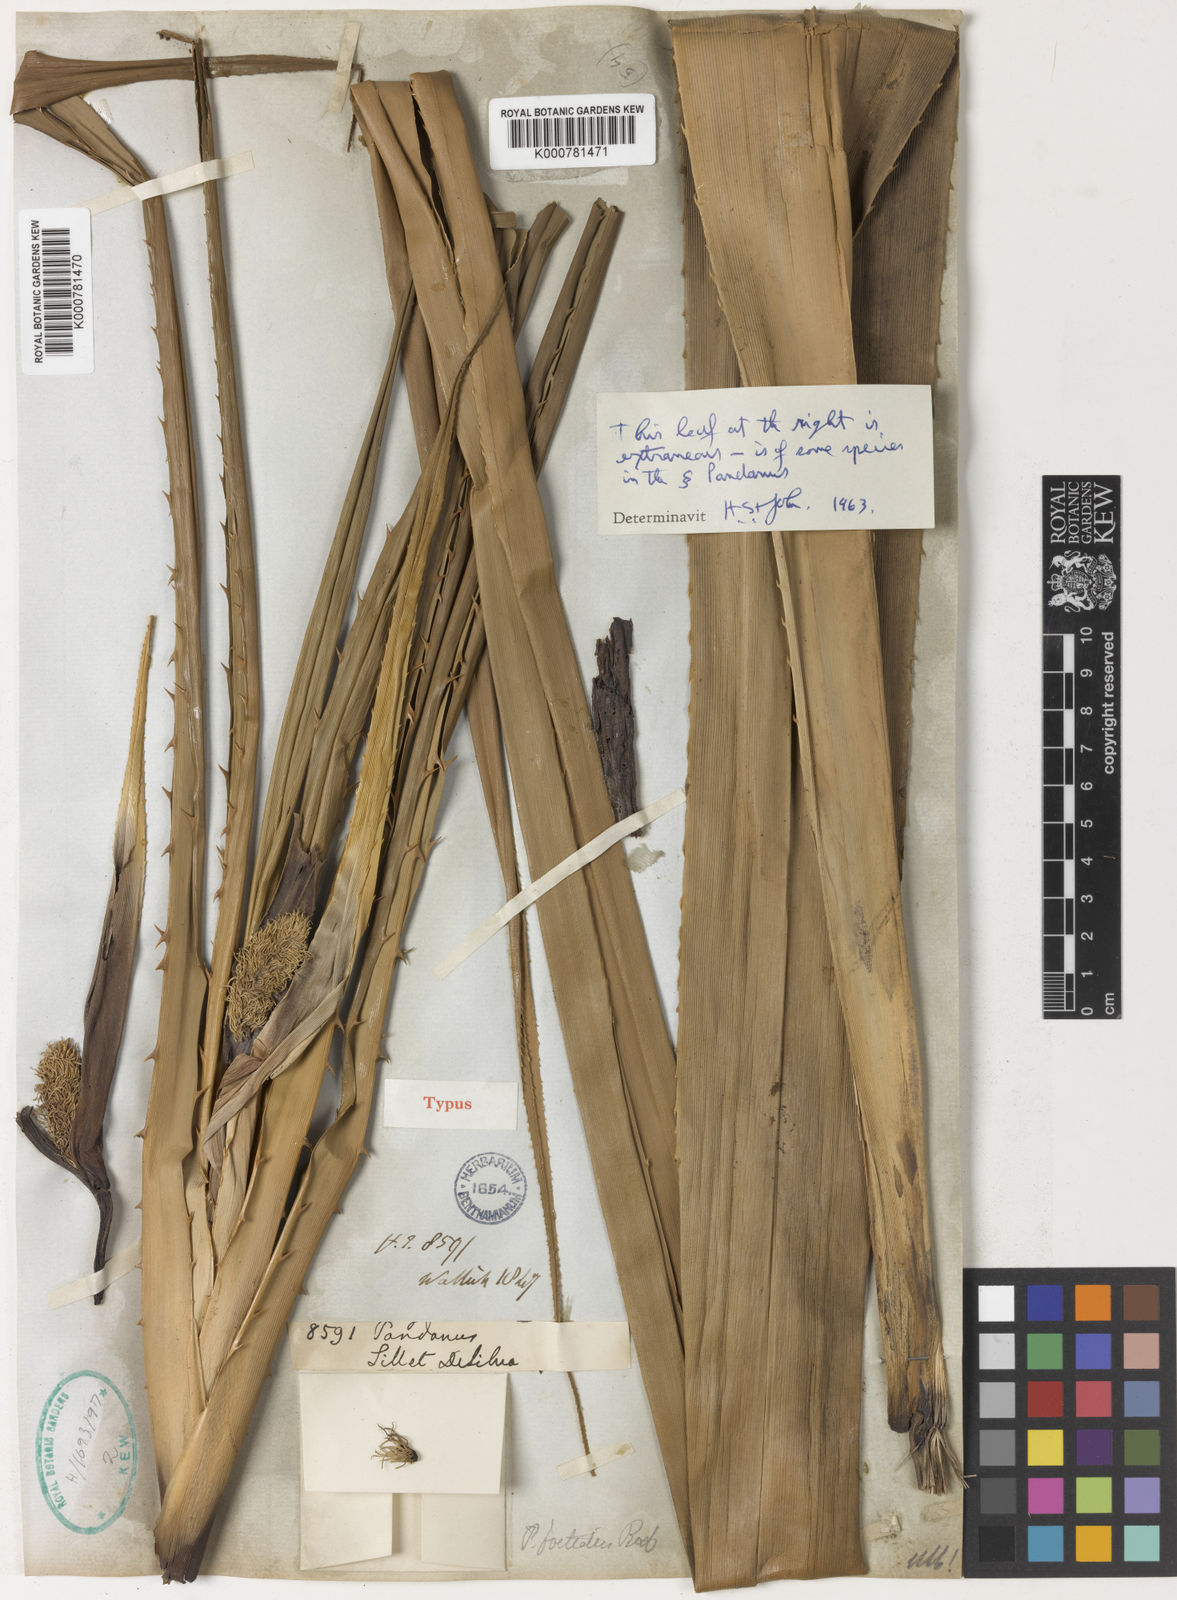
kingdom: Plantae
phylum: Tracheophyta
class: Liliopsida
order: Pandanales
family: Pandanaceae
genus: Benstonea
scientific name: Benstonea foetida
